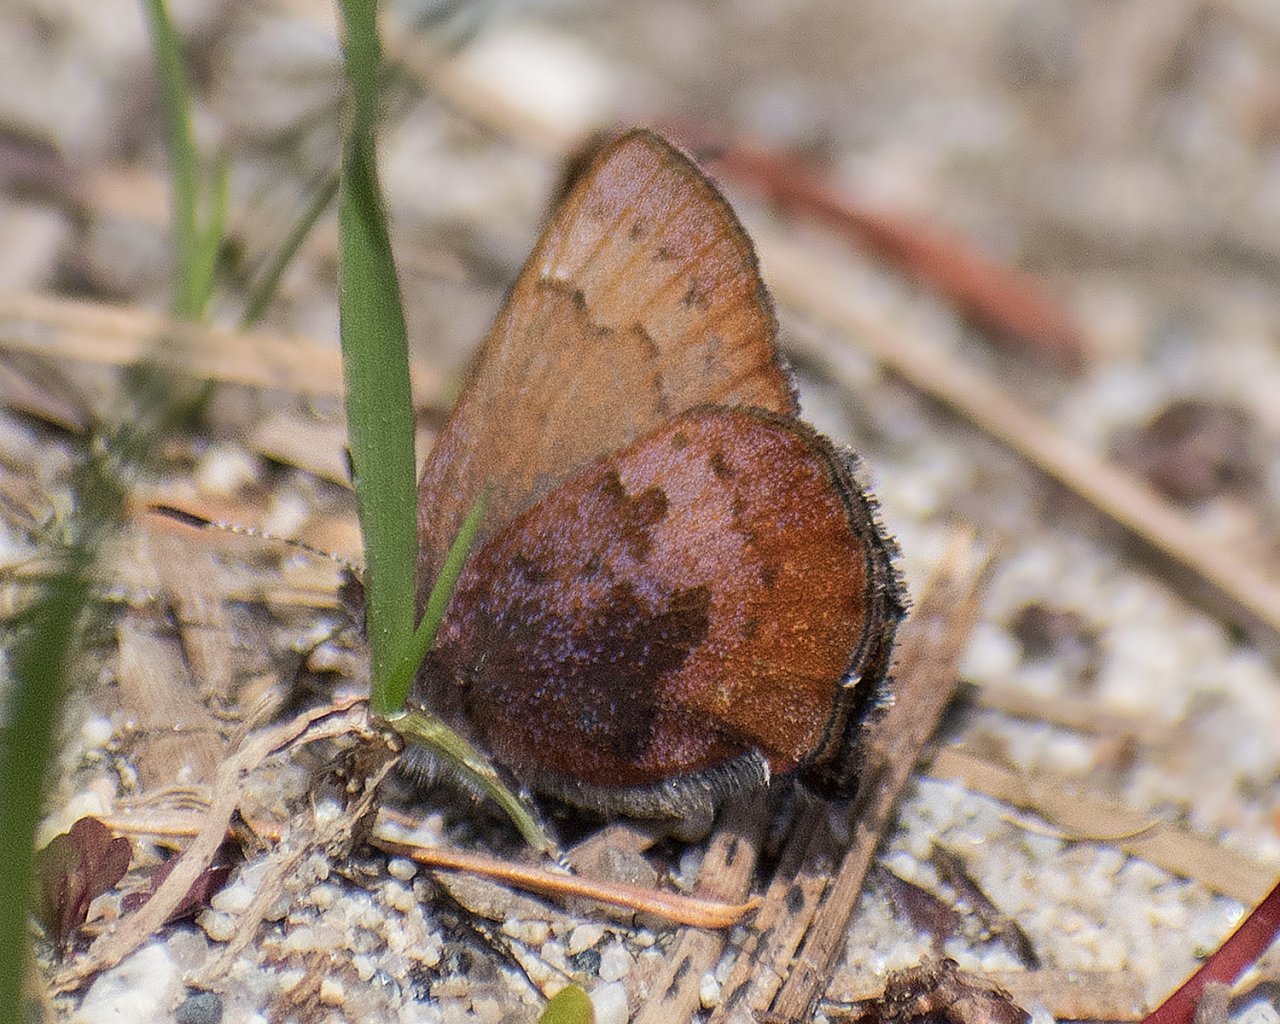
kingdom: Animalia
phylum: Arthropoda
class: Insecta
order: Lepidoptera
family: Lycaenidae
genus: Incisalia
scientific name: Incisalia irioides
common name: Brown Elfin
